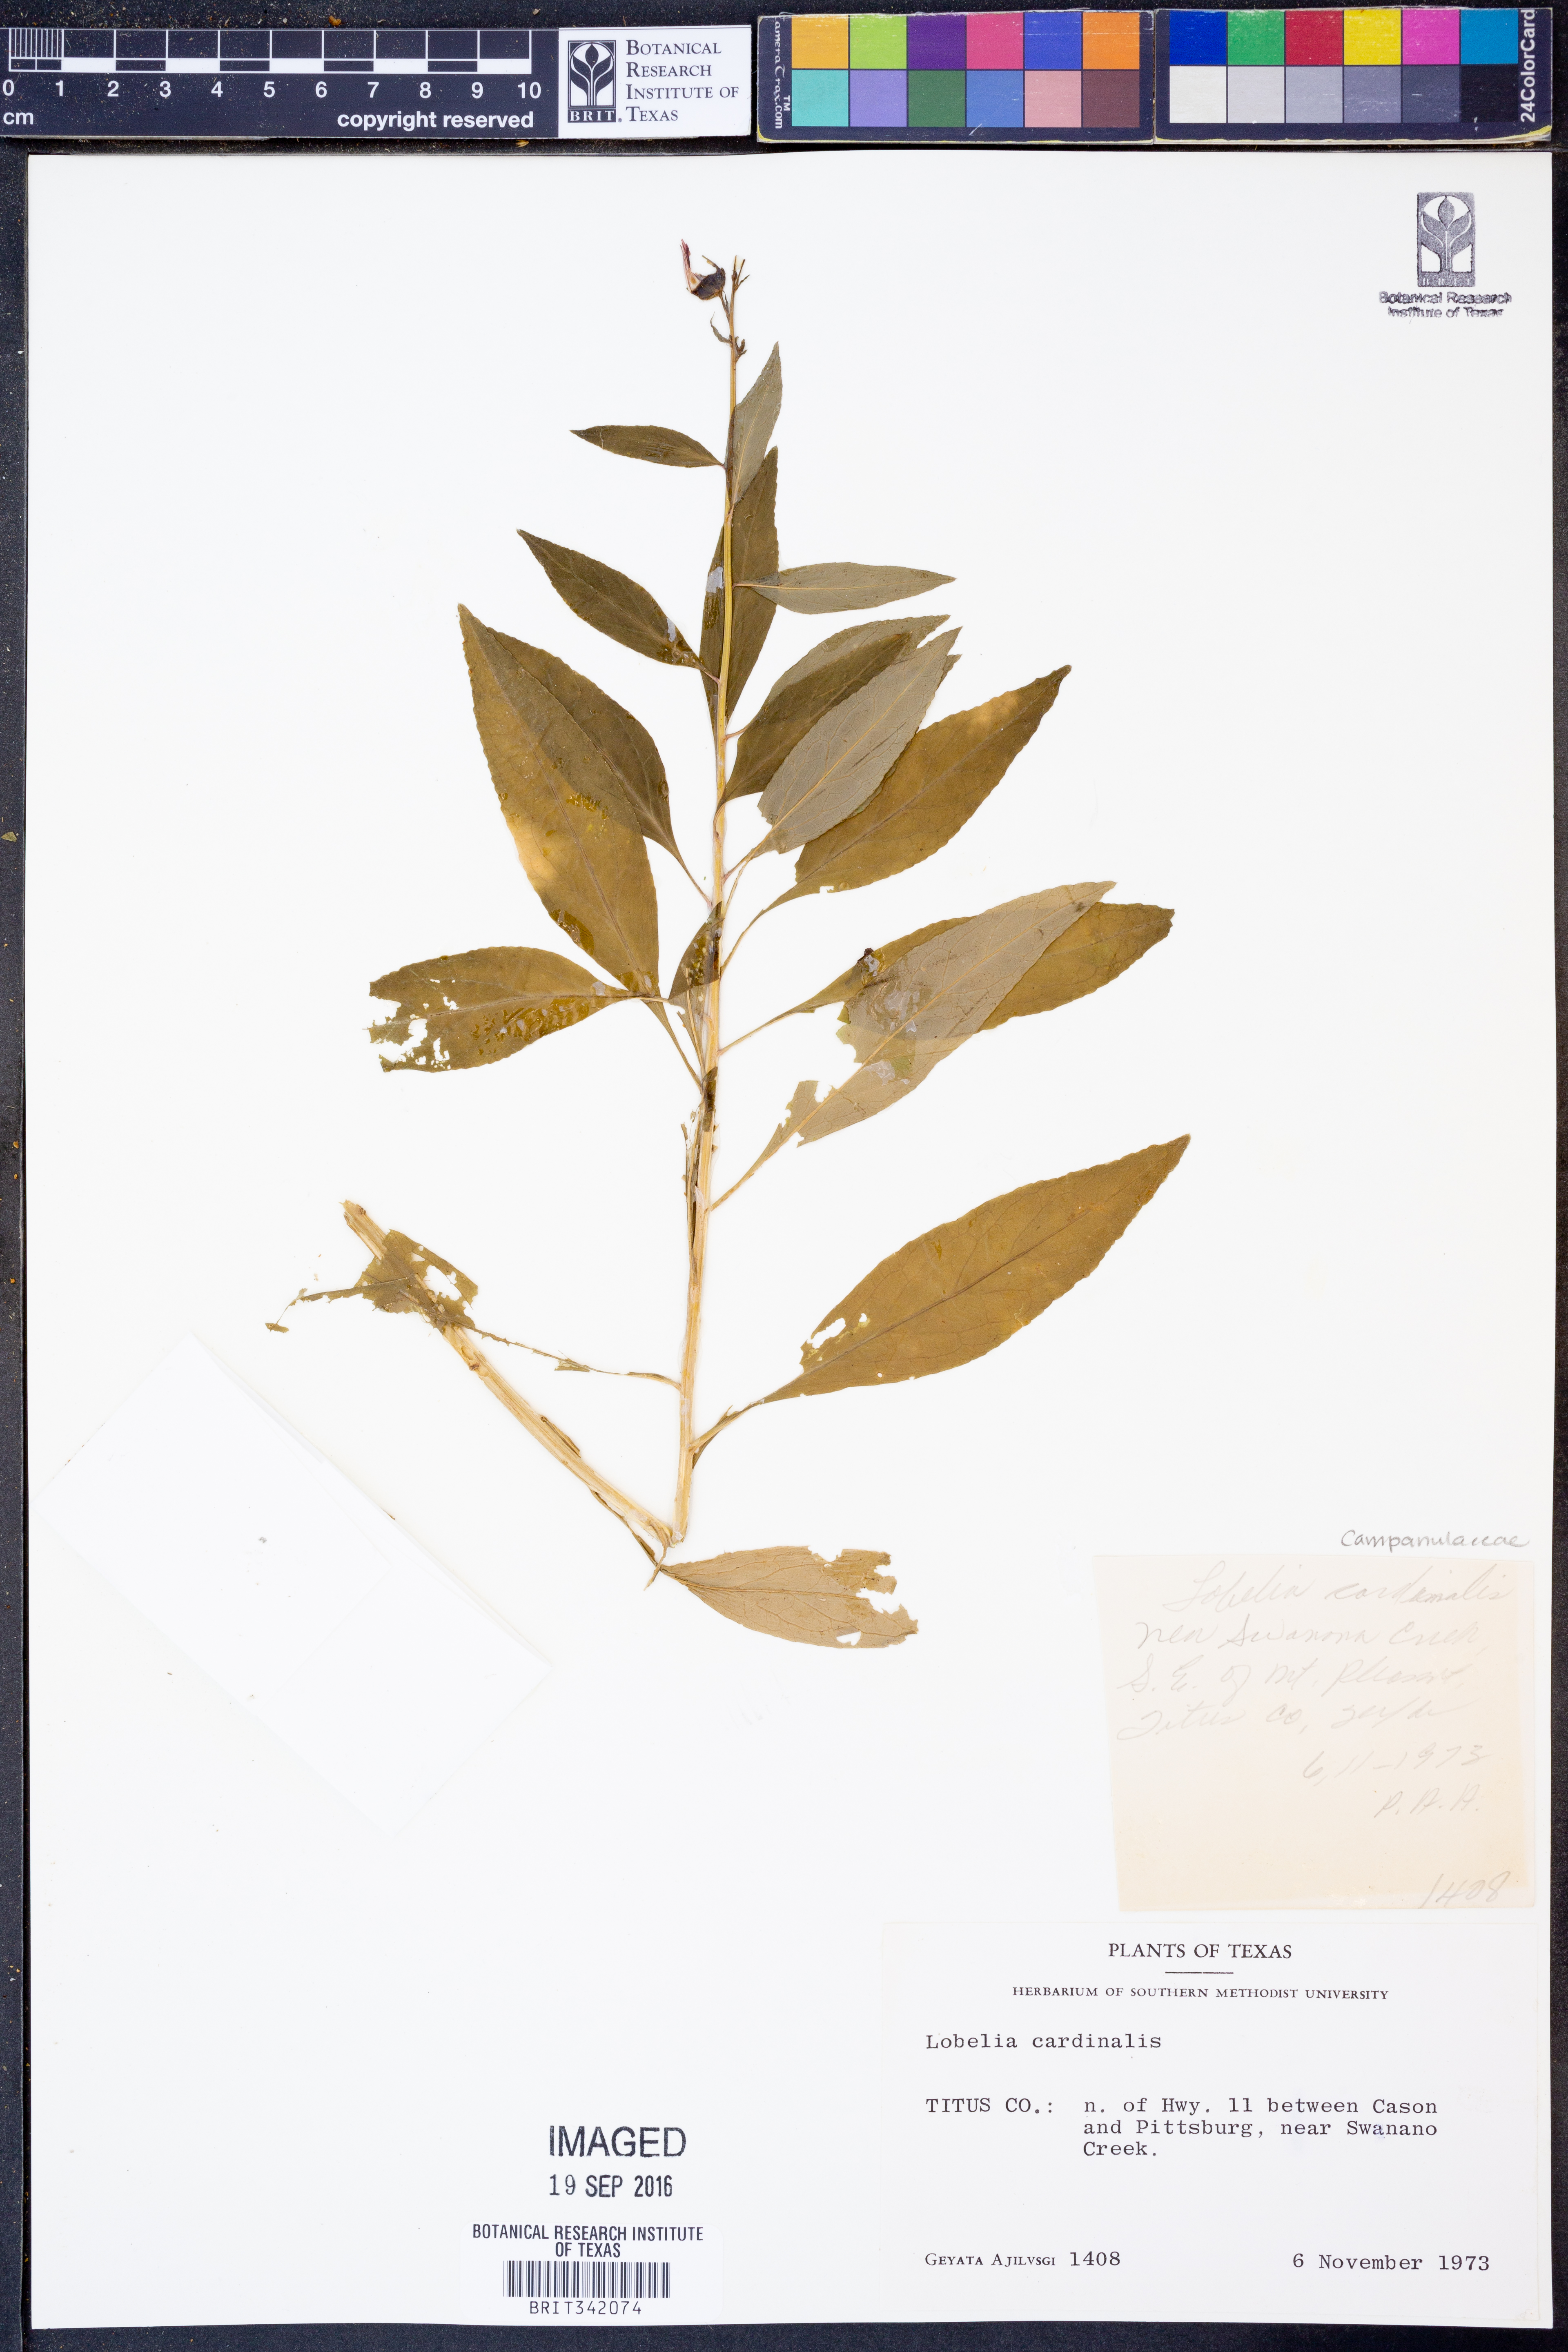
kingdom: Plantae
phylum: Tracheophyta
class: Magnoliopsida
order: Asterales
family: Campanulaceae
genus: Lobelia
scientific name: Lobelia cardinalis
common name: Cardinal flower
